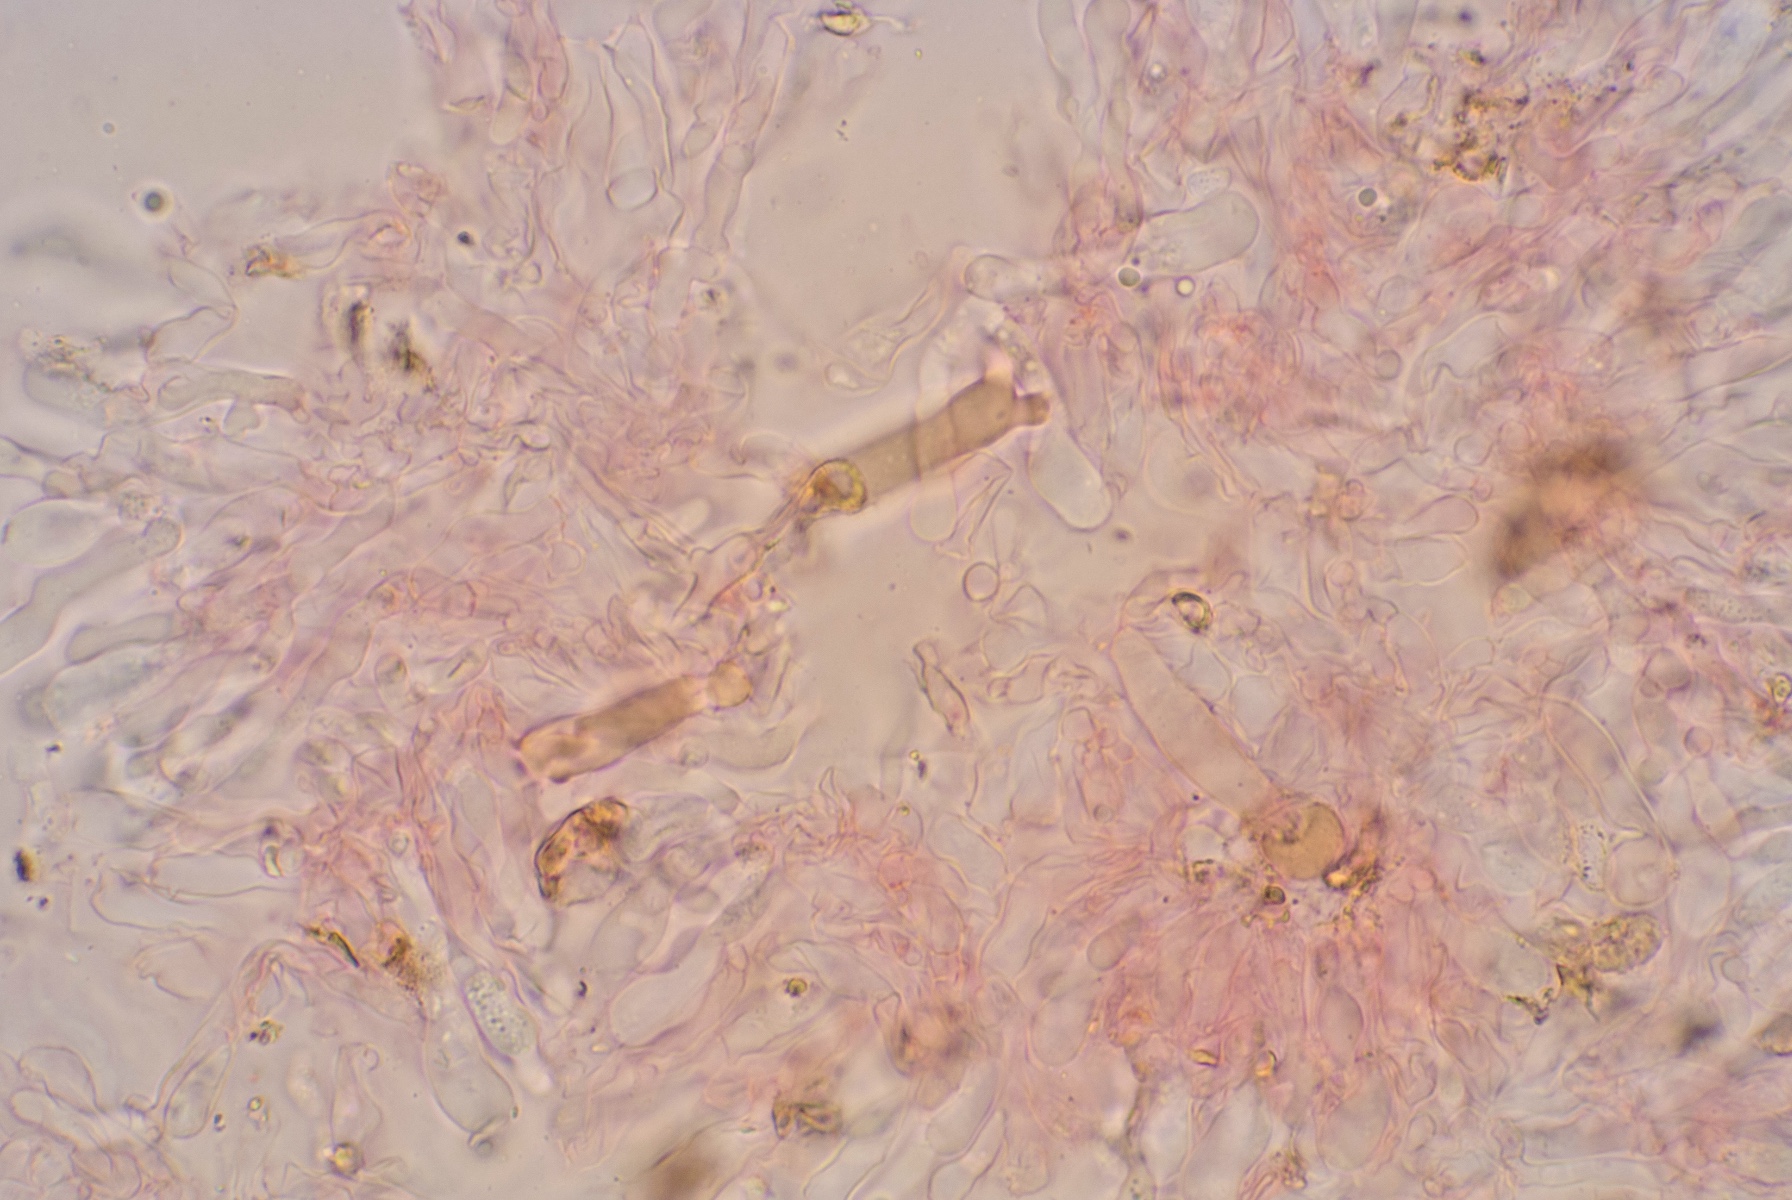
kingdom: Fungi
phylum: Basidiomycota
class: Agaricomycetes
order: Hymenochaetales
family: Rickenellaceae
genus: Peniophorella
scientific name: Peniophorella pallida
